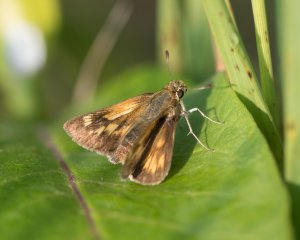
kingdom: Animalia
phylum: Arthropoda
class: Insecta
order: Lepidoptera
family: Hesperiidae
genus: Polites
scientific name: Polites
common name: Crossline Skipper
